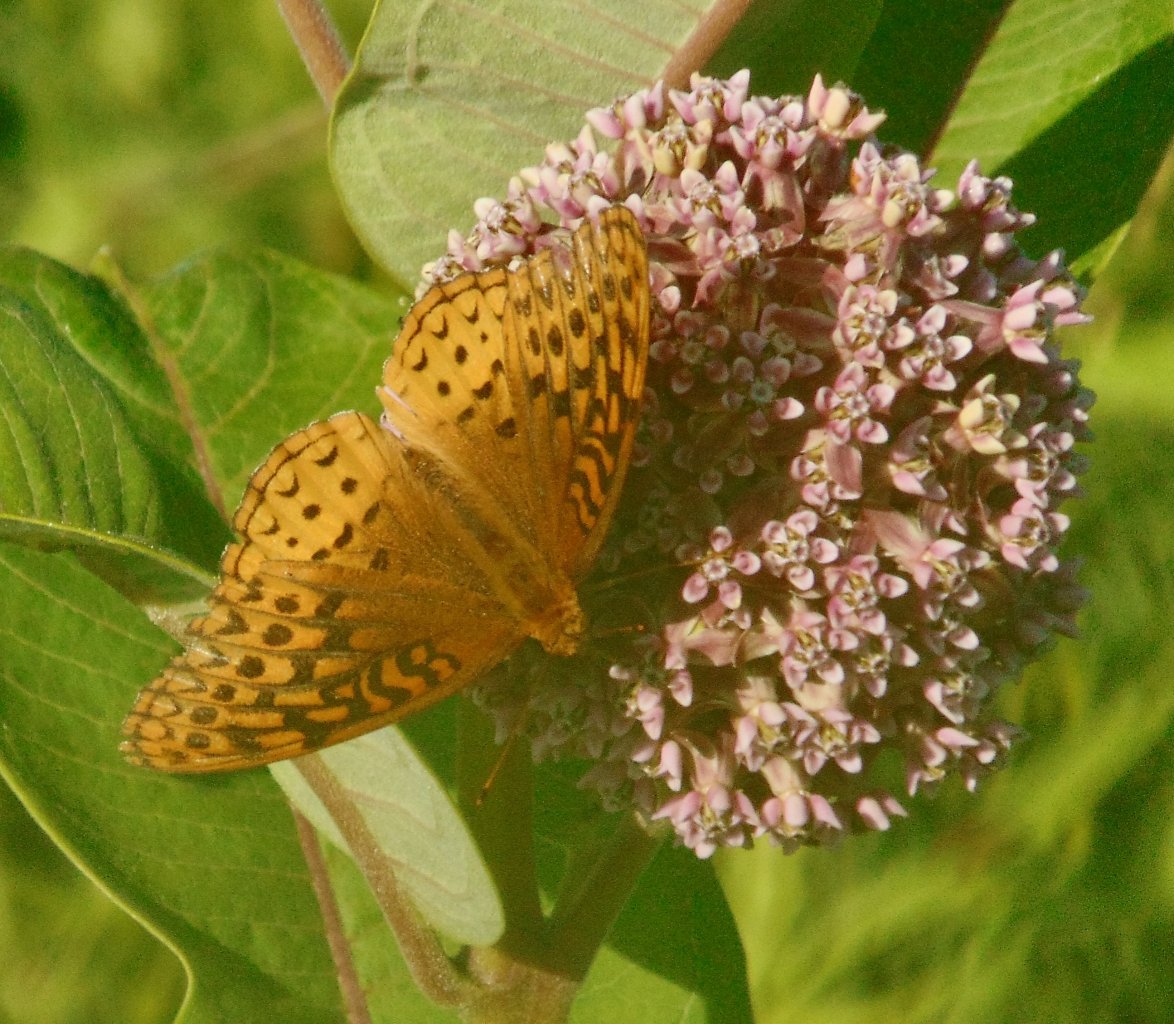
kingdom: Animalia
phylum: Arthropoda
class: Insecta
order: Lepidoptera
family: Nymphalidae
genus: Speyeria
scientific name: Speyeria cybele
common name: Great Spangled Fritillary
